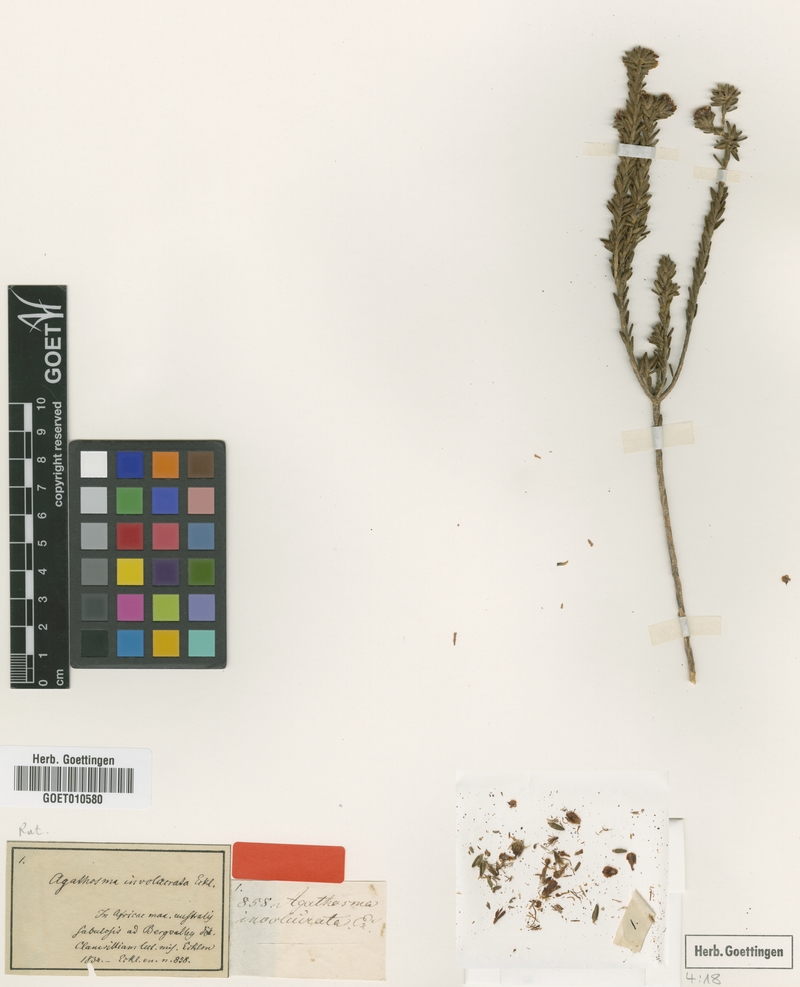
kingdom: Plantae
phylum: Tracheophyta
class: Magnoliopsida
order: Sapindales
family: Rutaceae
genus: Agathosma
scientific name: Agathosma involucrata
